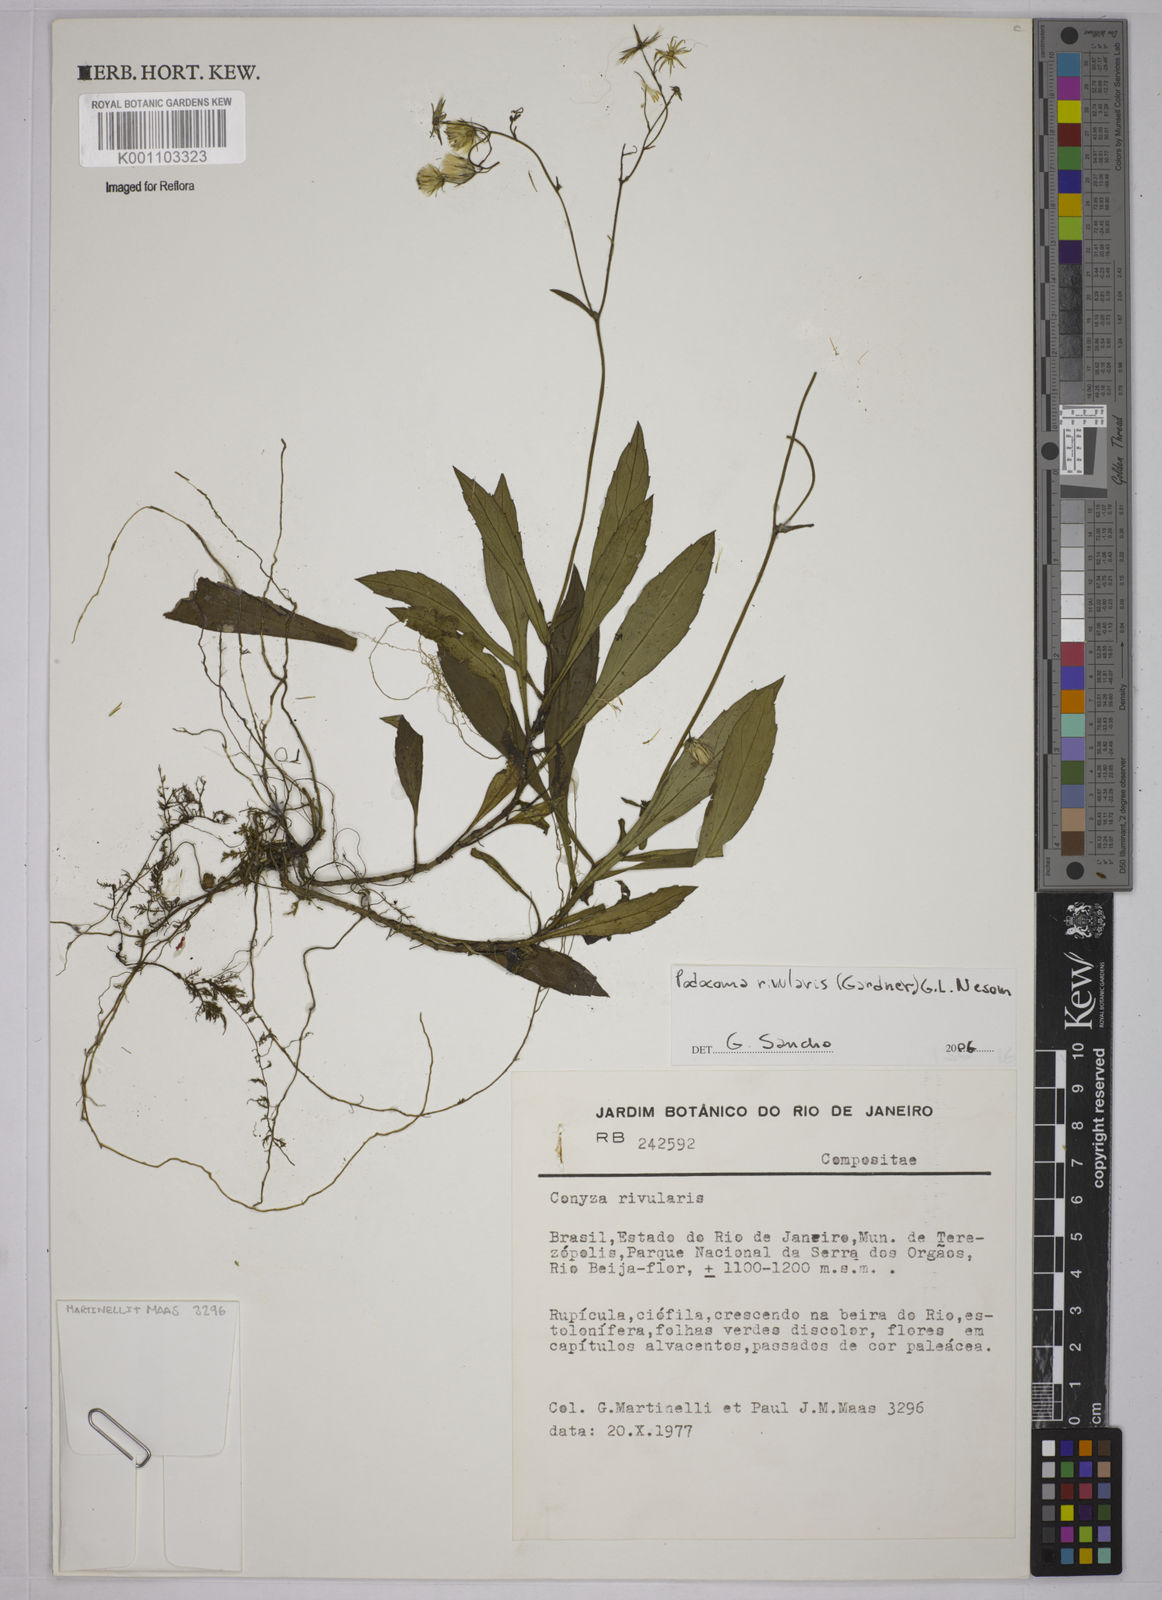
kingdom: Plantae
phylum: Tracheophyta
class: Magnoliopsida
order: Asterales
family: Asteraceae
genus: Exostigma
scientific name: Exostigma rivulare
